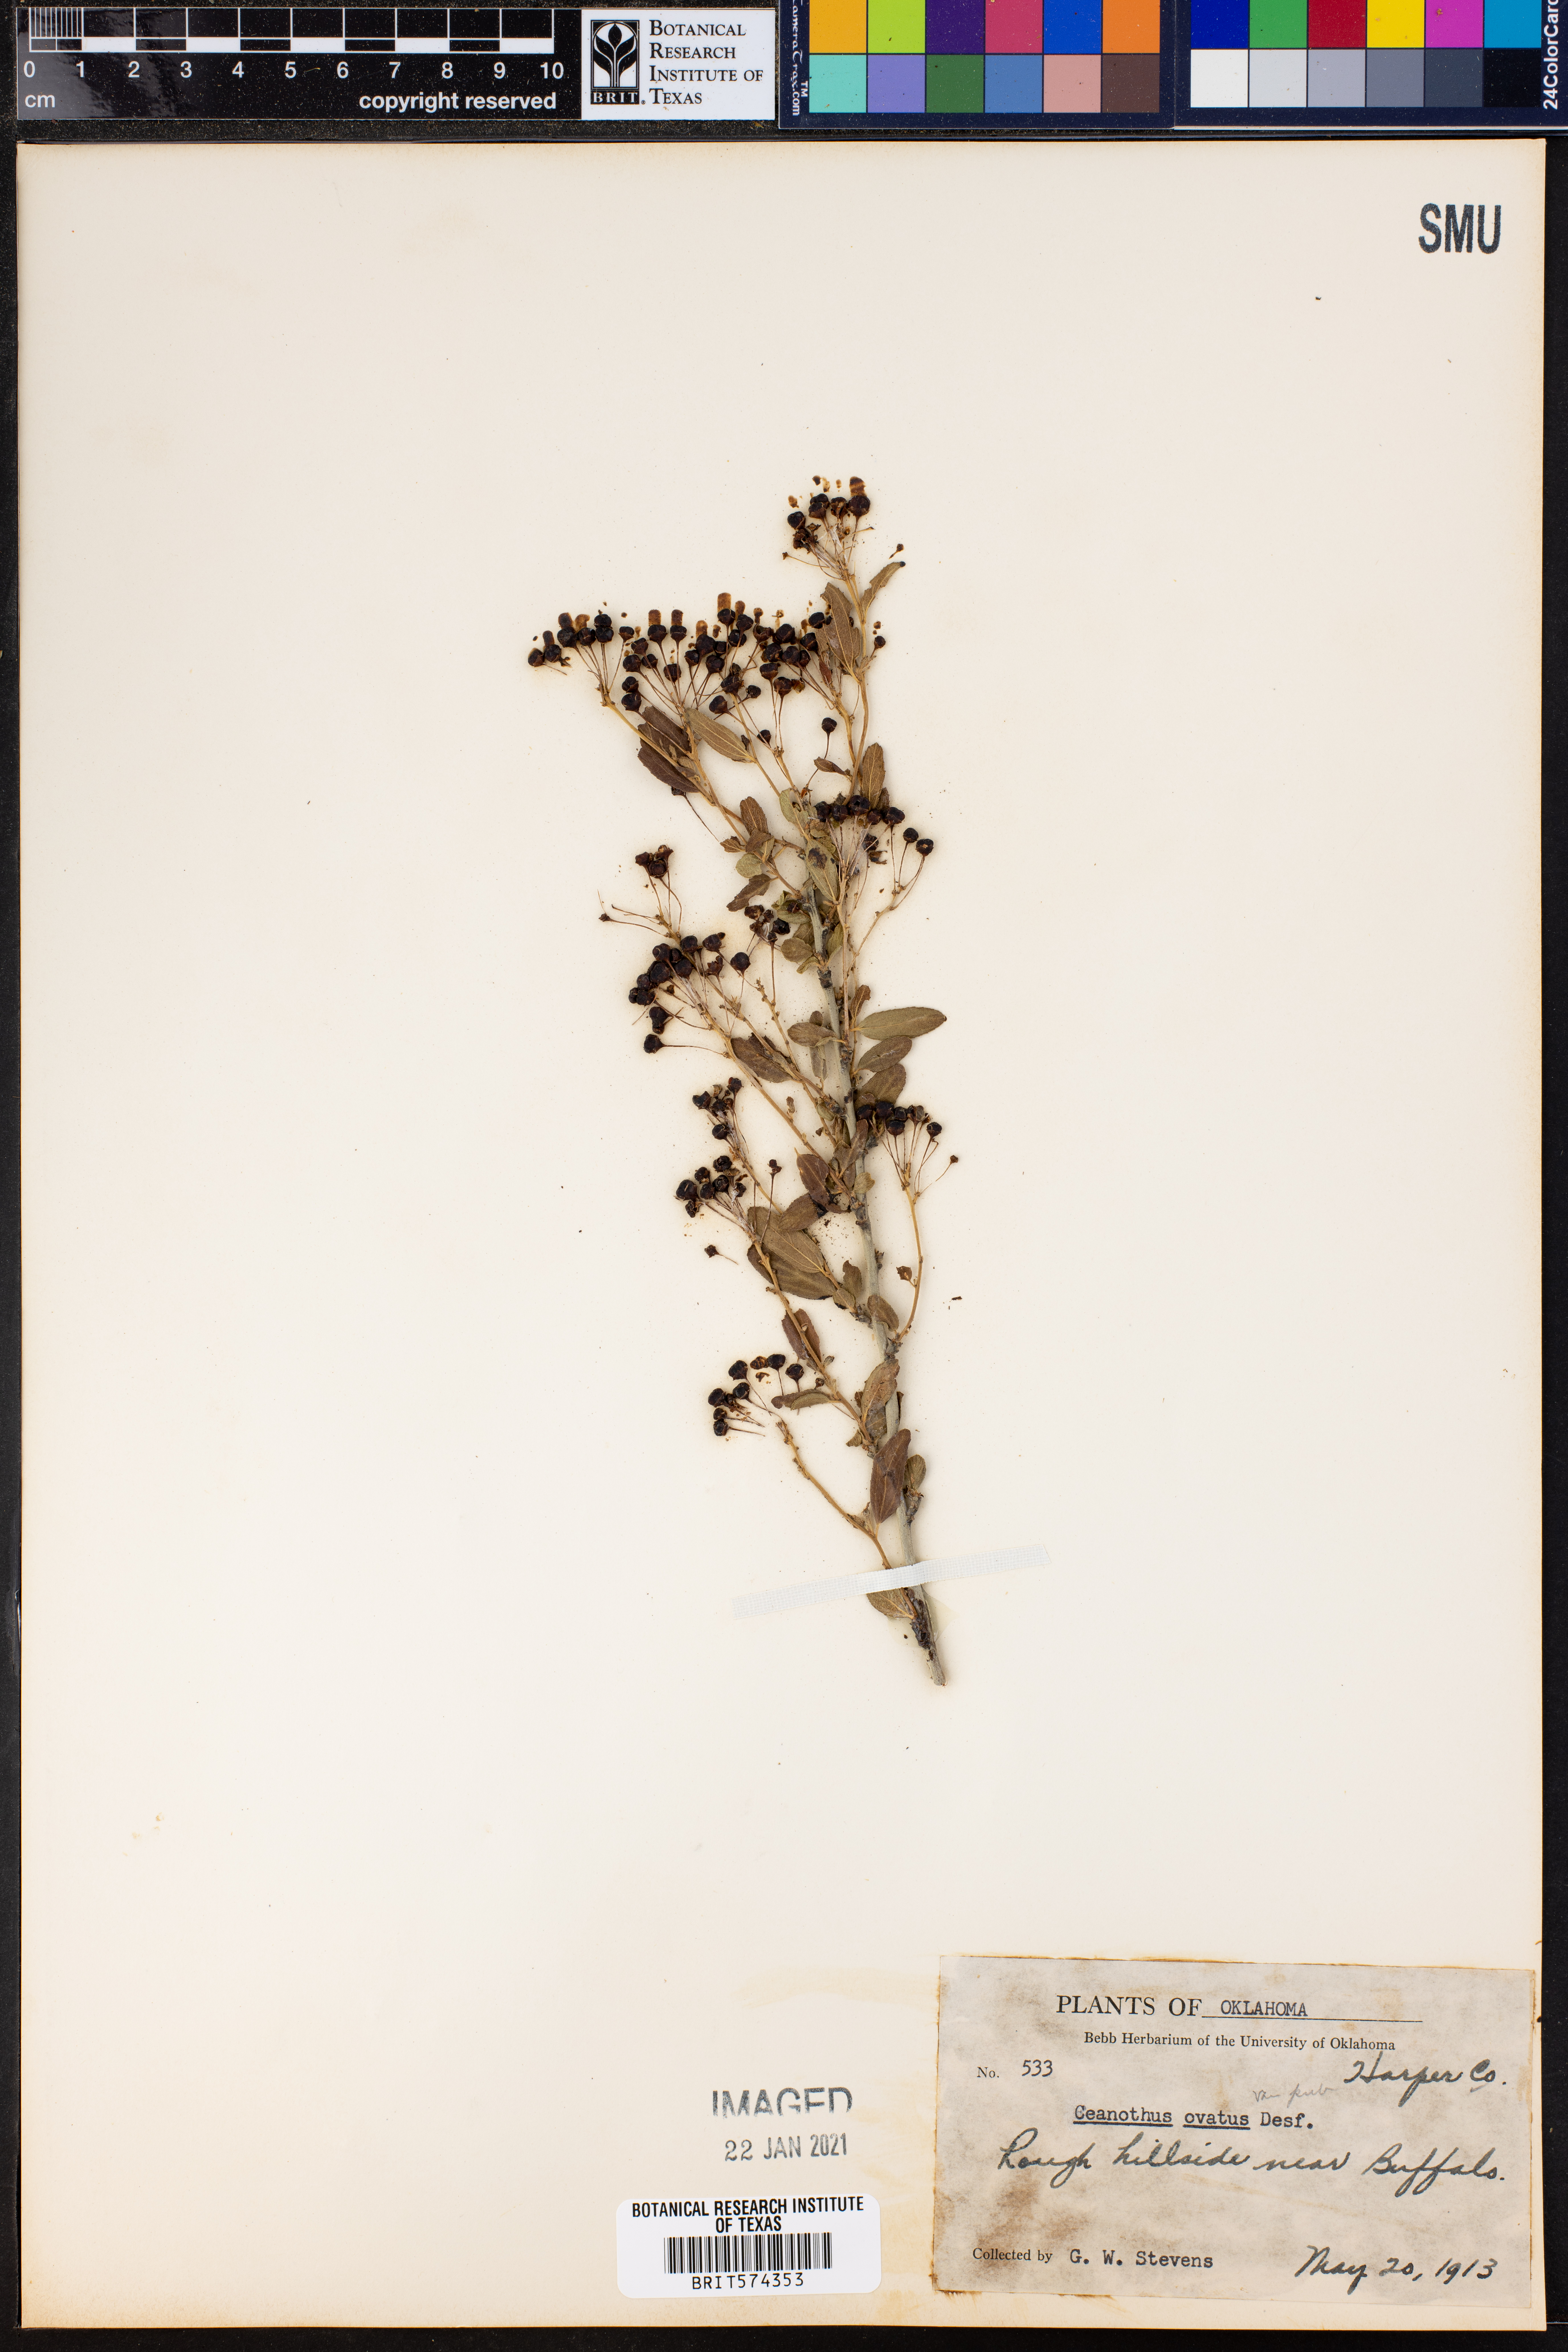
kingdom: Plantae
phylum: Tracheophyta
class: Magnoliopsida
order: Rosales
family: Rhamnaceae
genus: Ceanothus
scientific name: Ceanothus herbaceus
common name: Inland ceanothus
